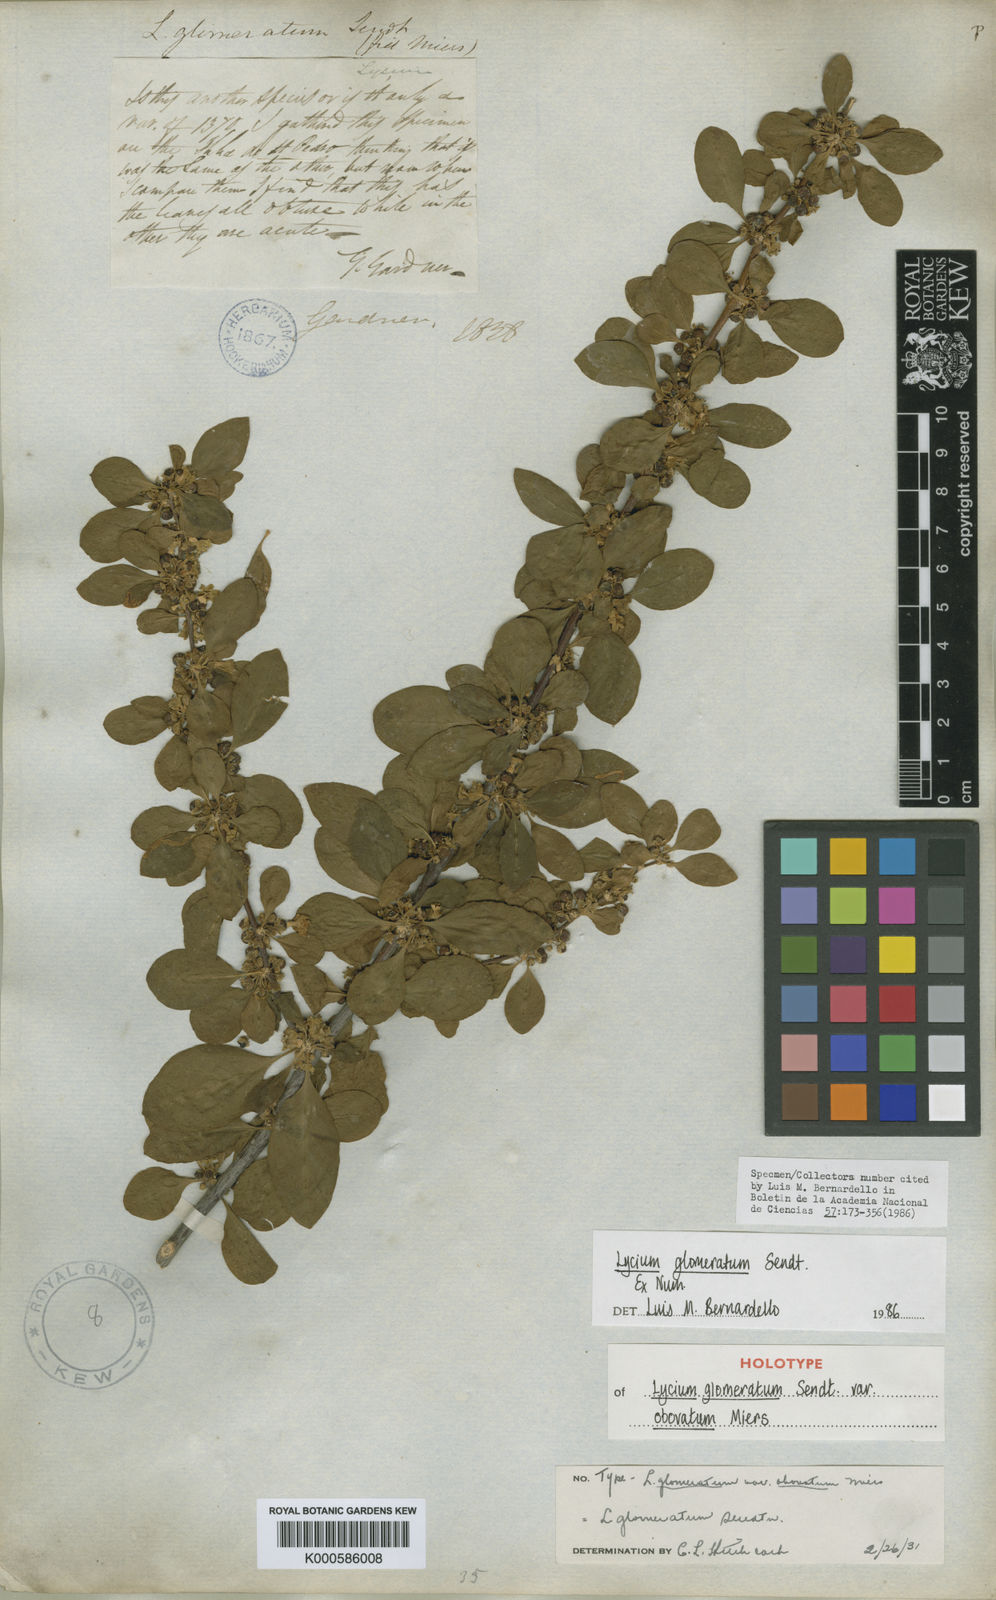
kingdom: Plantae
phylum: Tracheophyta
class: Magnoliopsida
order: Solanales
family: Solanaceae
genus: Lycium
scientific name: Lycium glomeratum
